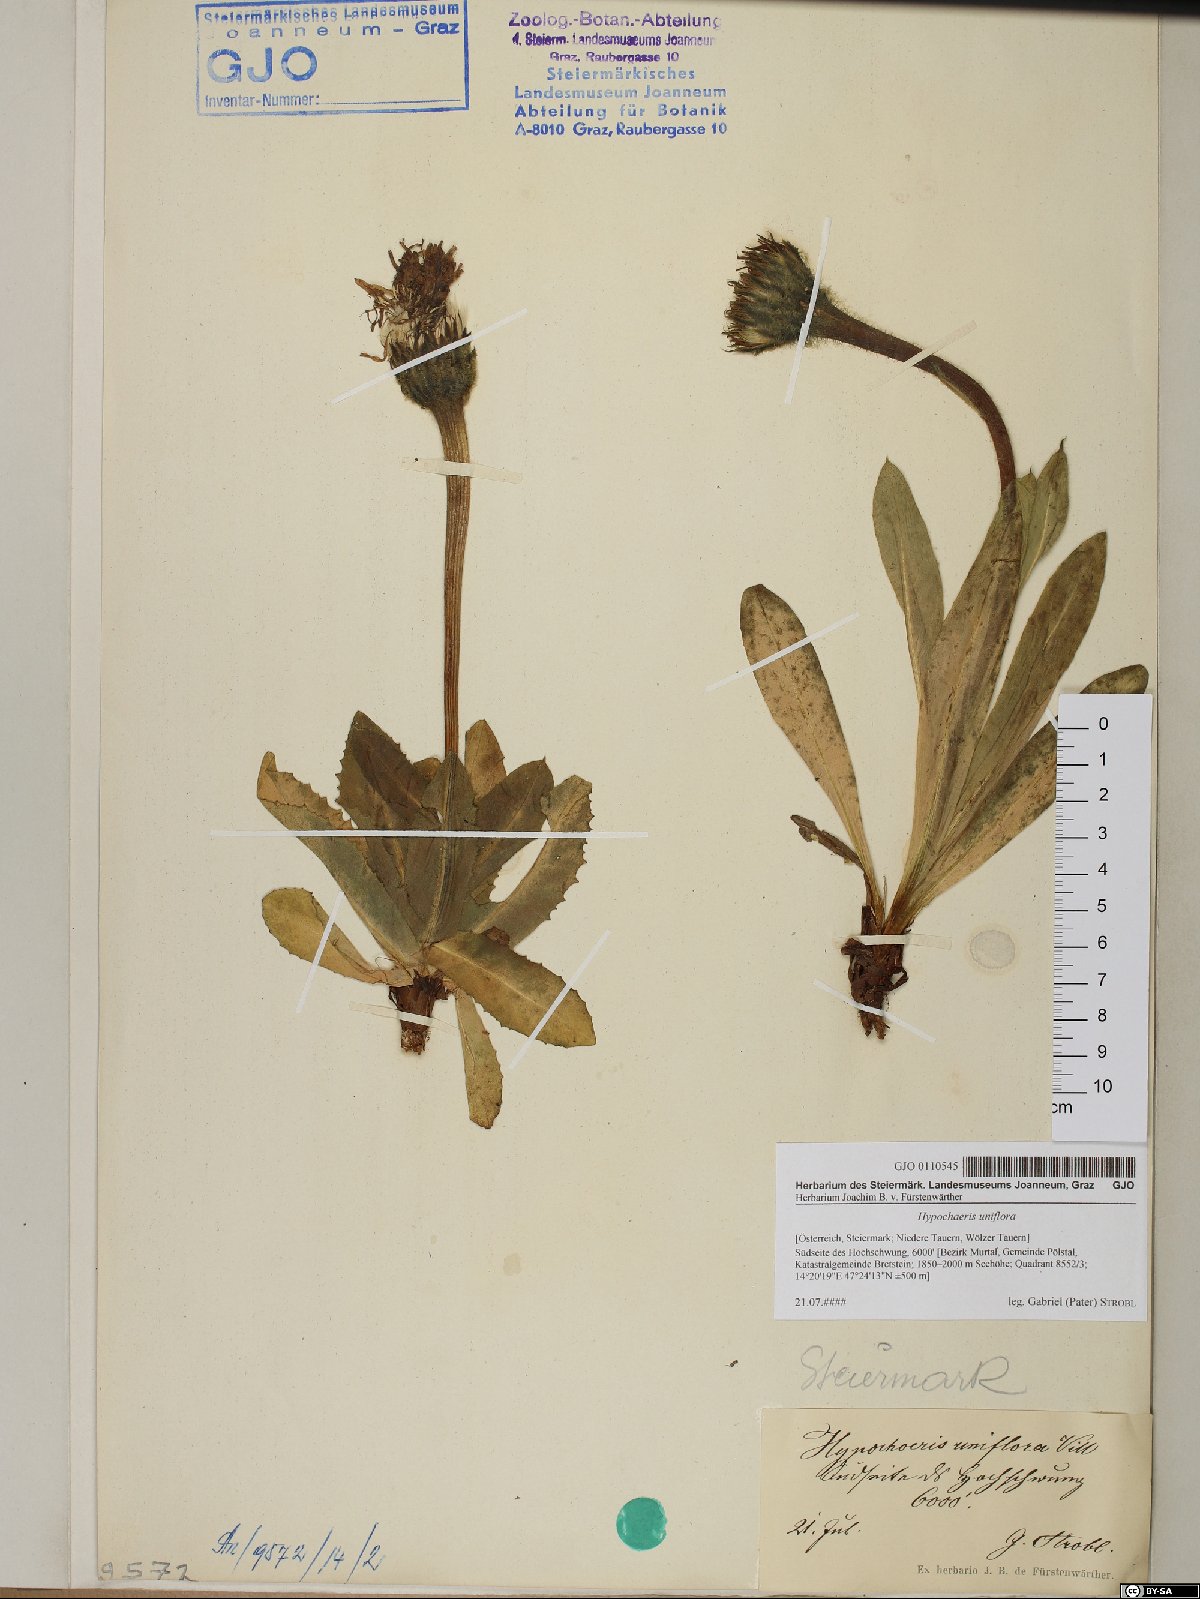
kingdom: Plantae
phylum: Tracheophyta
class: Magnoliopsida
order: Asterales
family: Asteraceae
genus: Trommsdorffia
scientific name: Trommsdorffia uniflora
